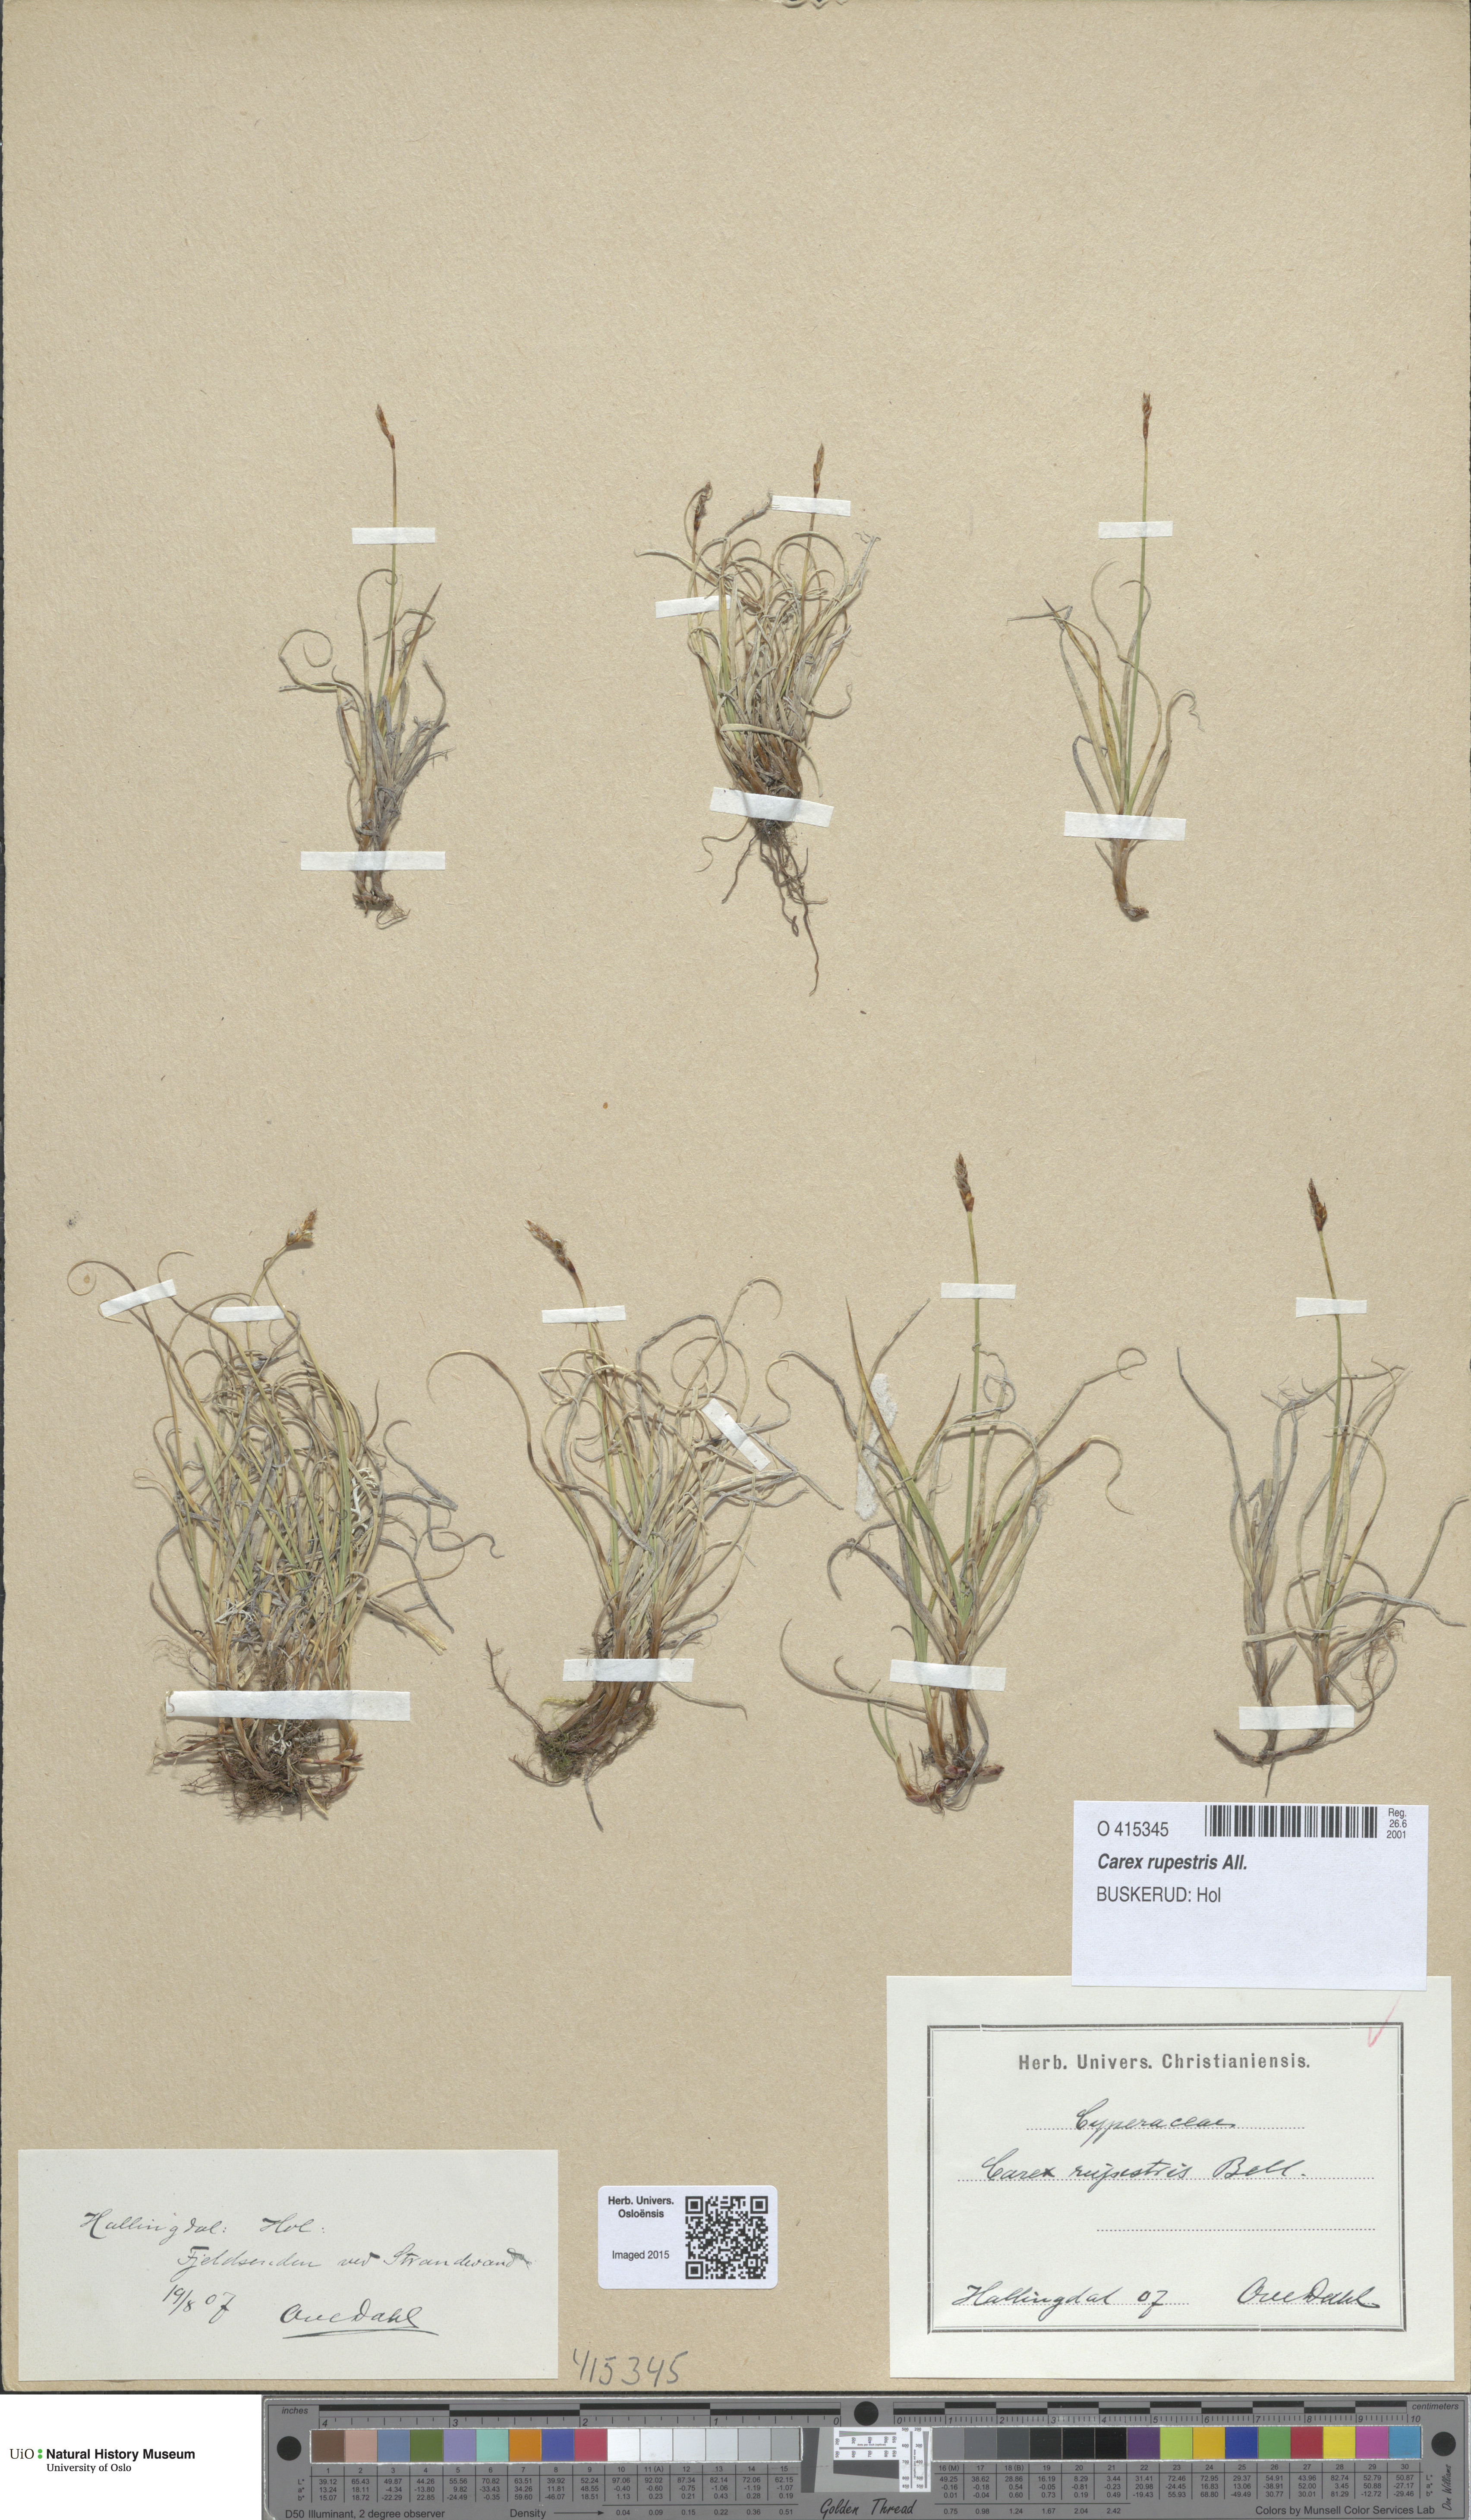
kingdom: Plantae
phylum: Tracheophyta
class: Liliopsida
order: Poales
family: Cyperaceae
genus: Carex
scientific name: Carex rupestris
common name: Rock sedge
